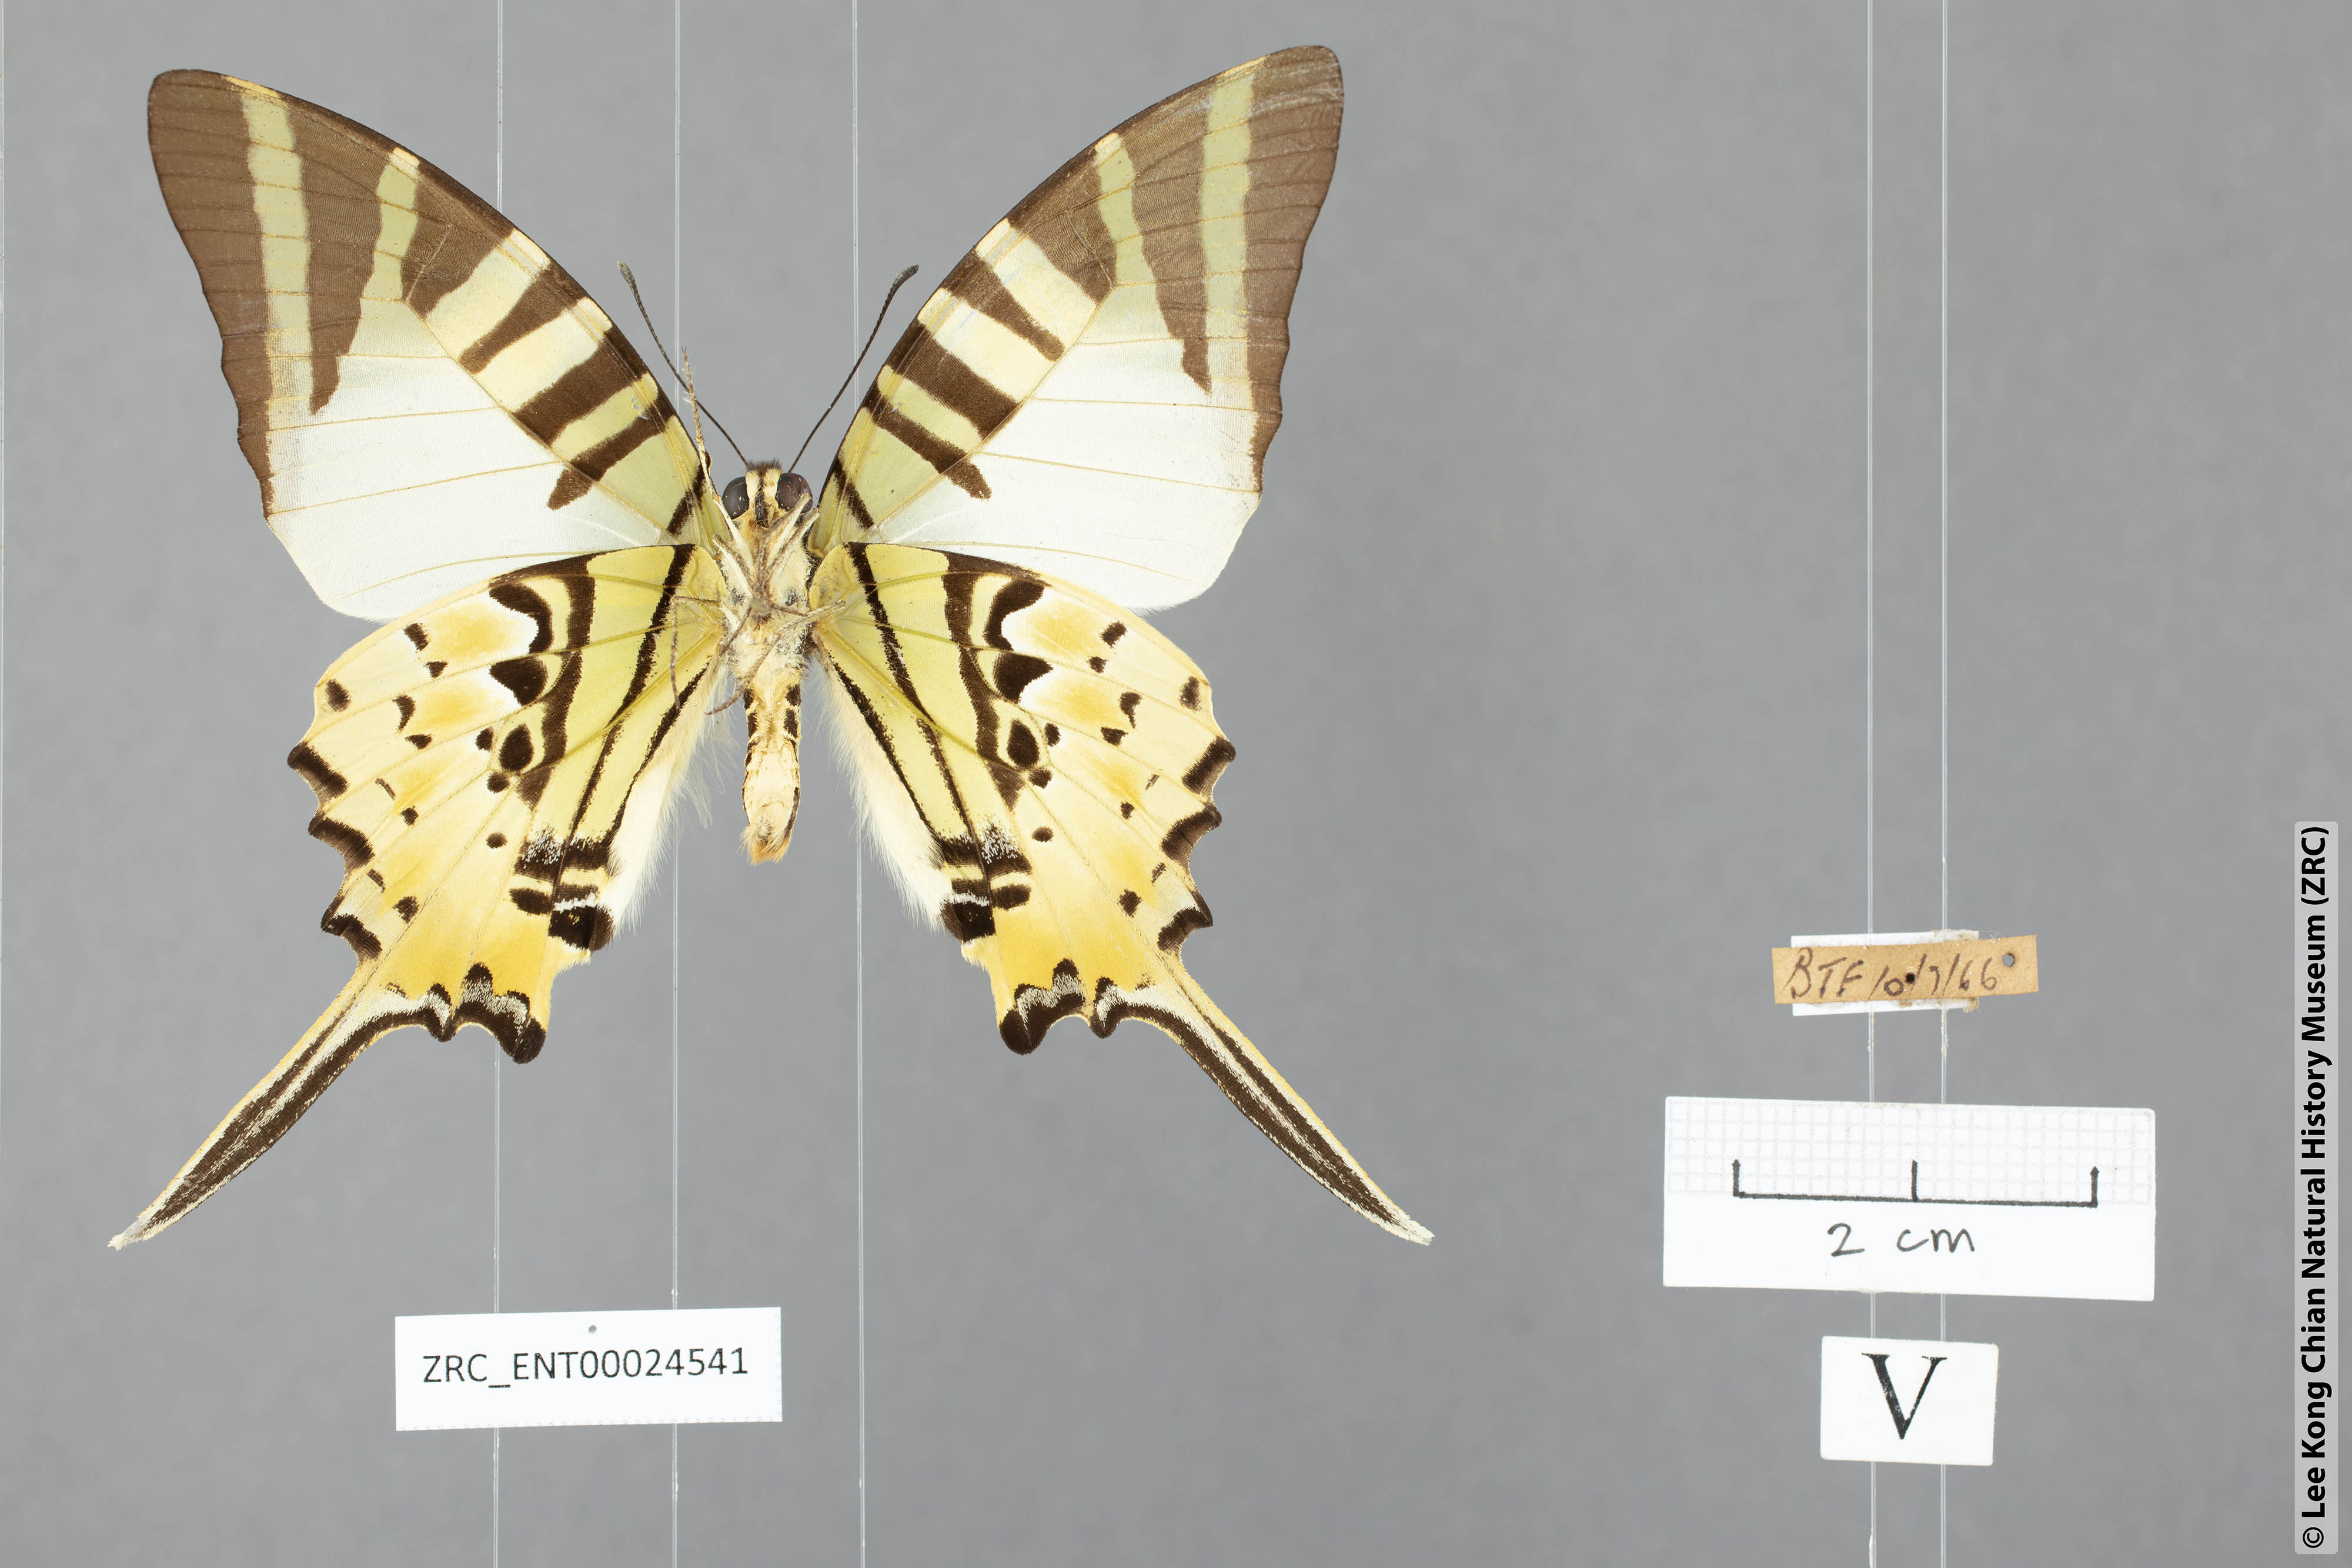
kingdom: Animalia
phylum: Arthropoda
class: Insecta
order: Lepidoptera
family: Papilionidae
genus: Graphium
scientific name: Graphium antiphates
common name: Fivebar swordtail
